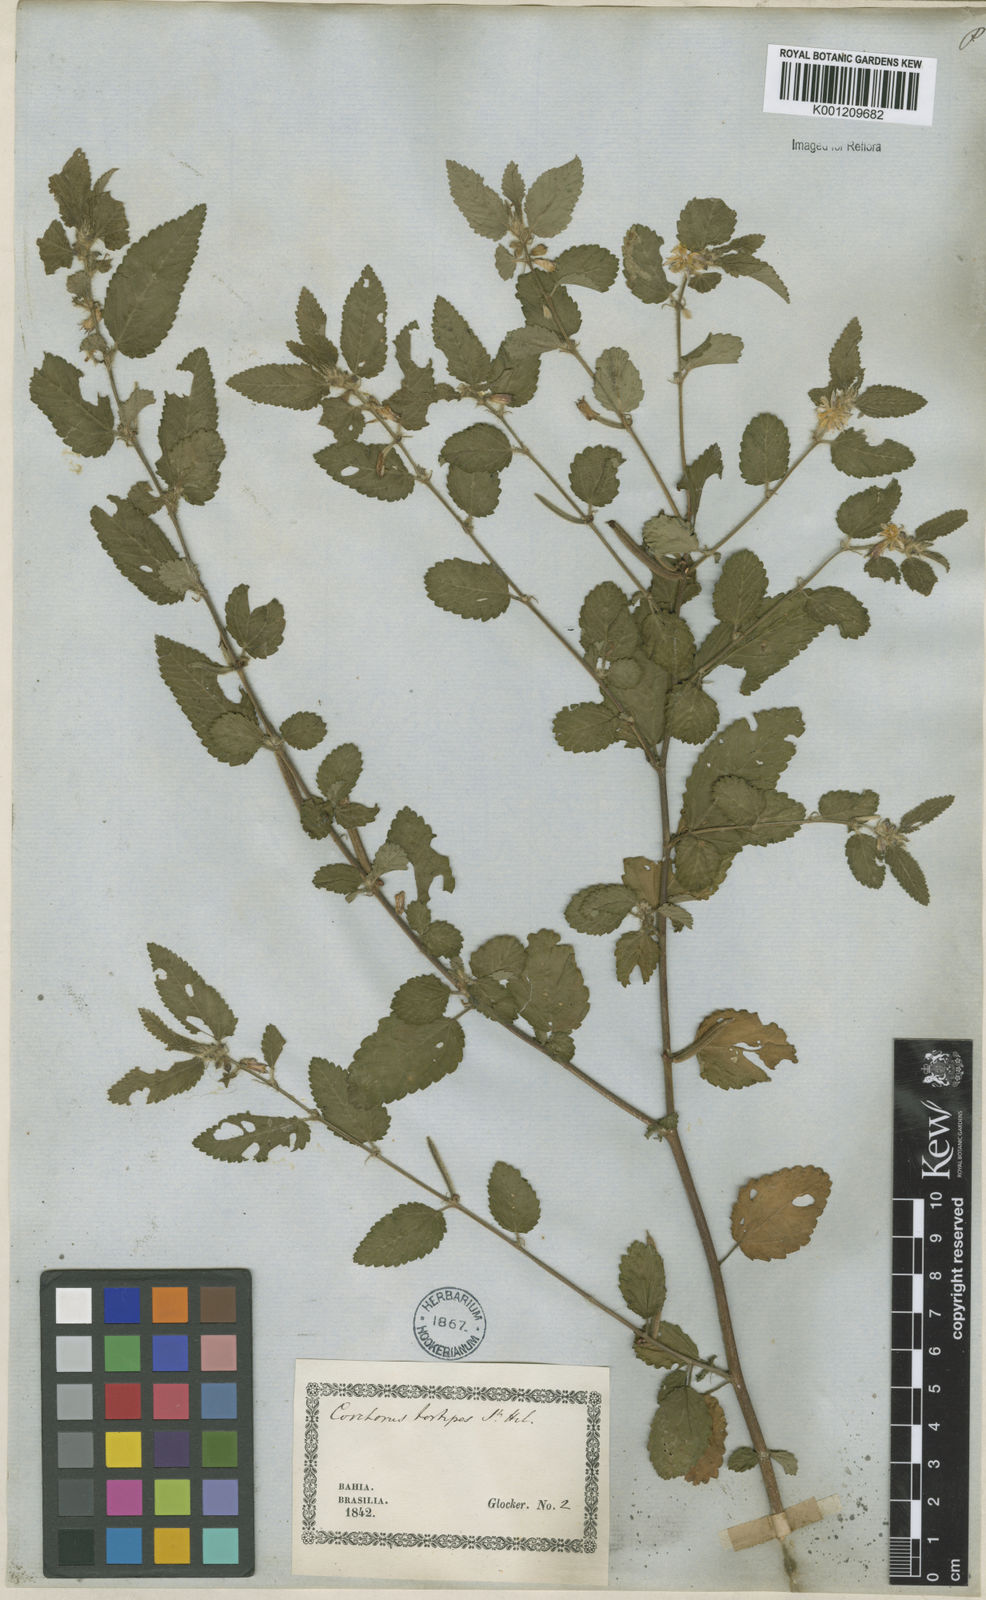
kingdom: Plantae
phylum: Tracheophyta
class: Magnoliopsida
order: Malvales
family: Malvaceae
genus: Corchorus
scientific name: Corchorus hirtus
